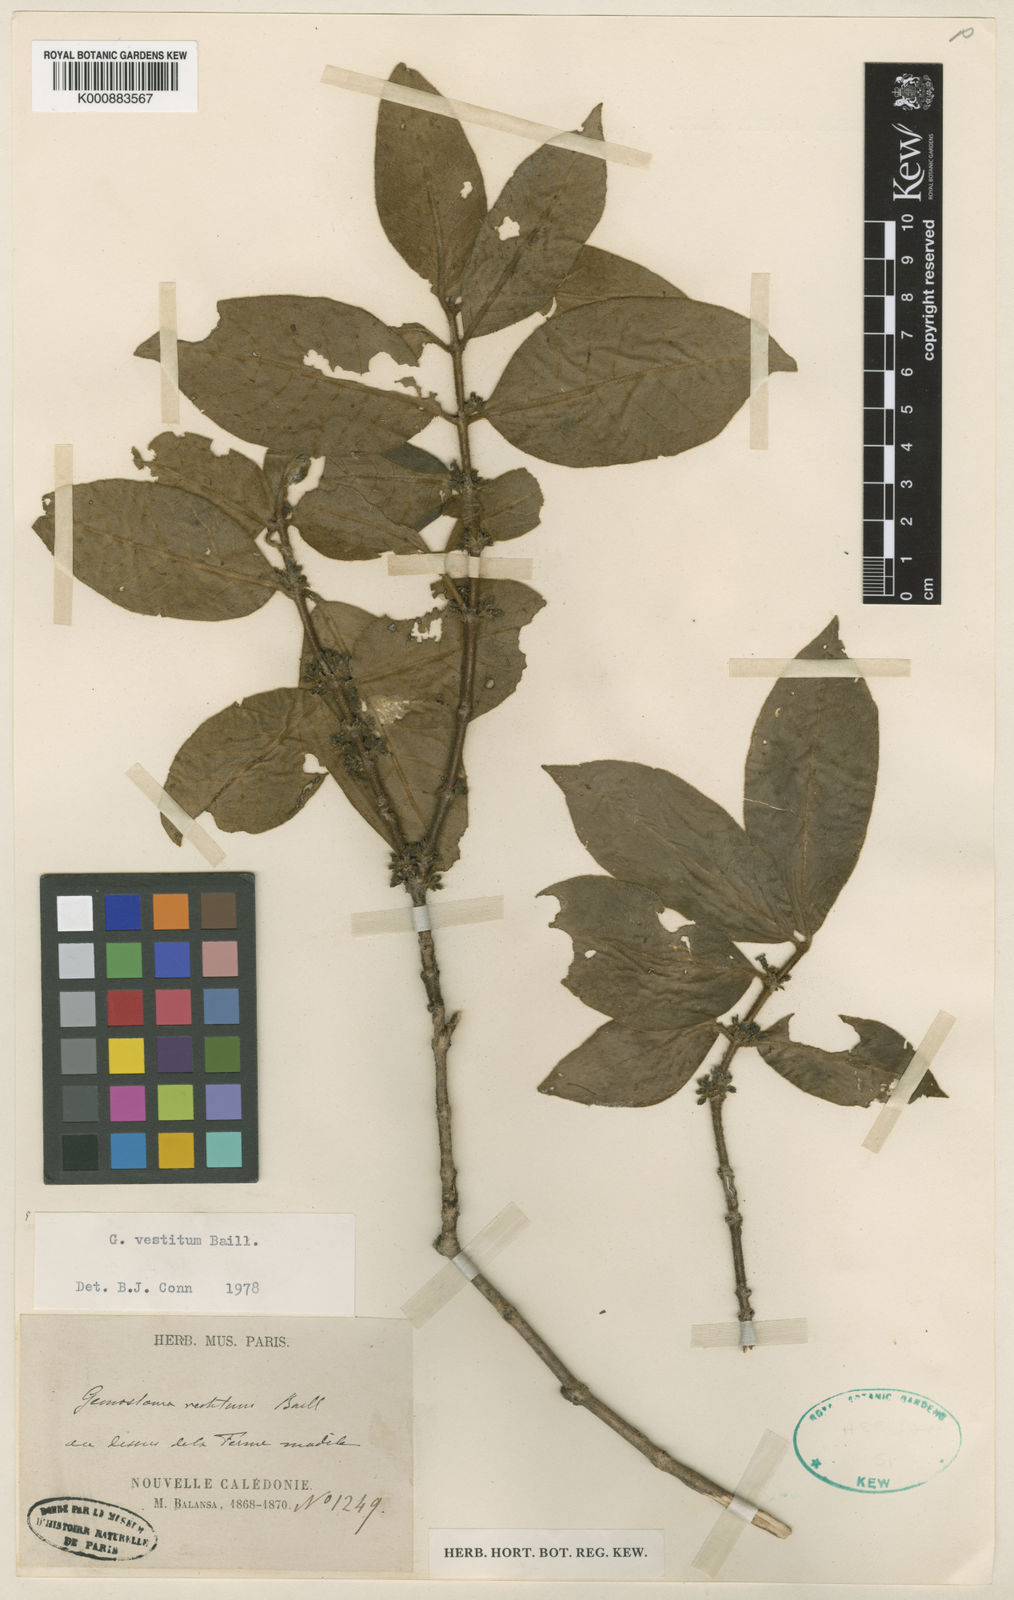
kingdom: Plantae
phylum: Tracheophyta
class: Magnoliopsida
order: Gentianales
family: Loganiaceae
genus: Geniostoma
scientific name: Geniostoma vestitum
